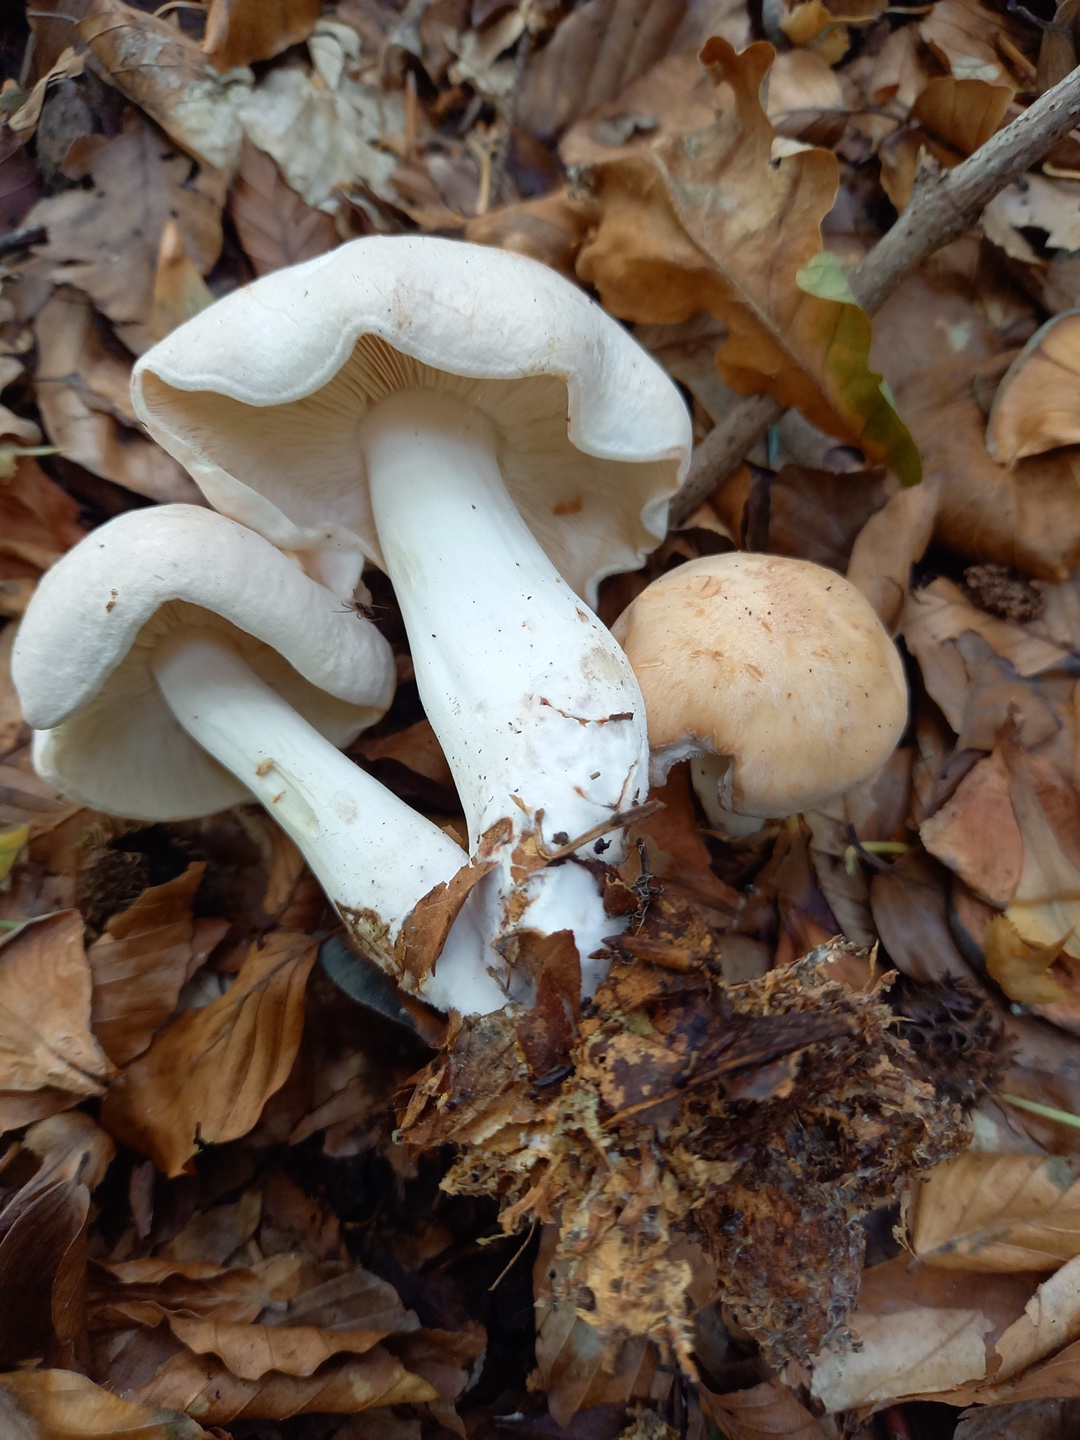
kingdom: Fungi
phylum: Basidiomycota
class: Agaricomycetes
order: Agaricales
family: Omphalotaceae
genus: Rhodocollybia
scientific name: Rhodocollybia maculata
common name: plettet fladhat
